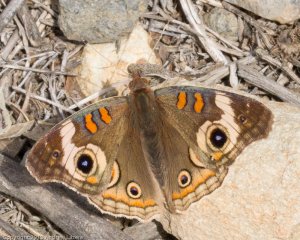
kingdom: Animalia
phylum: Arthropoda
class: Insecta
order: Lepidoptera
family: Nymphalidae
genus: Junonia
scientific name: Junonia coenia
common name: Common Buckeye
